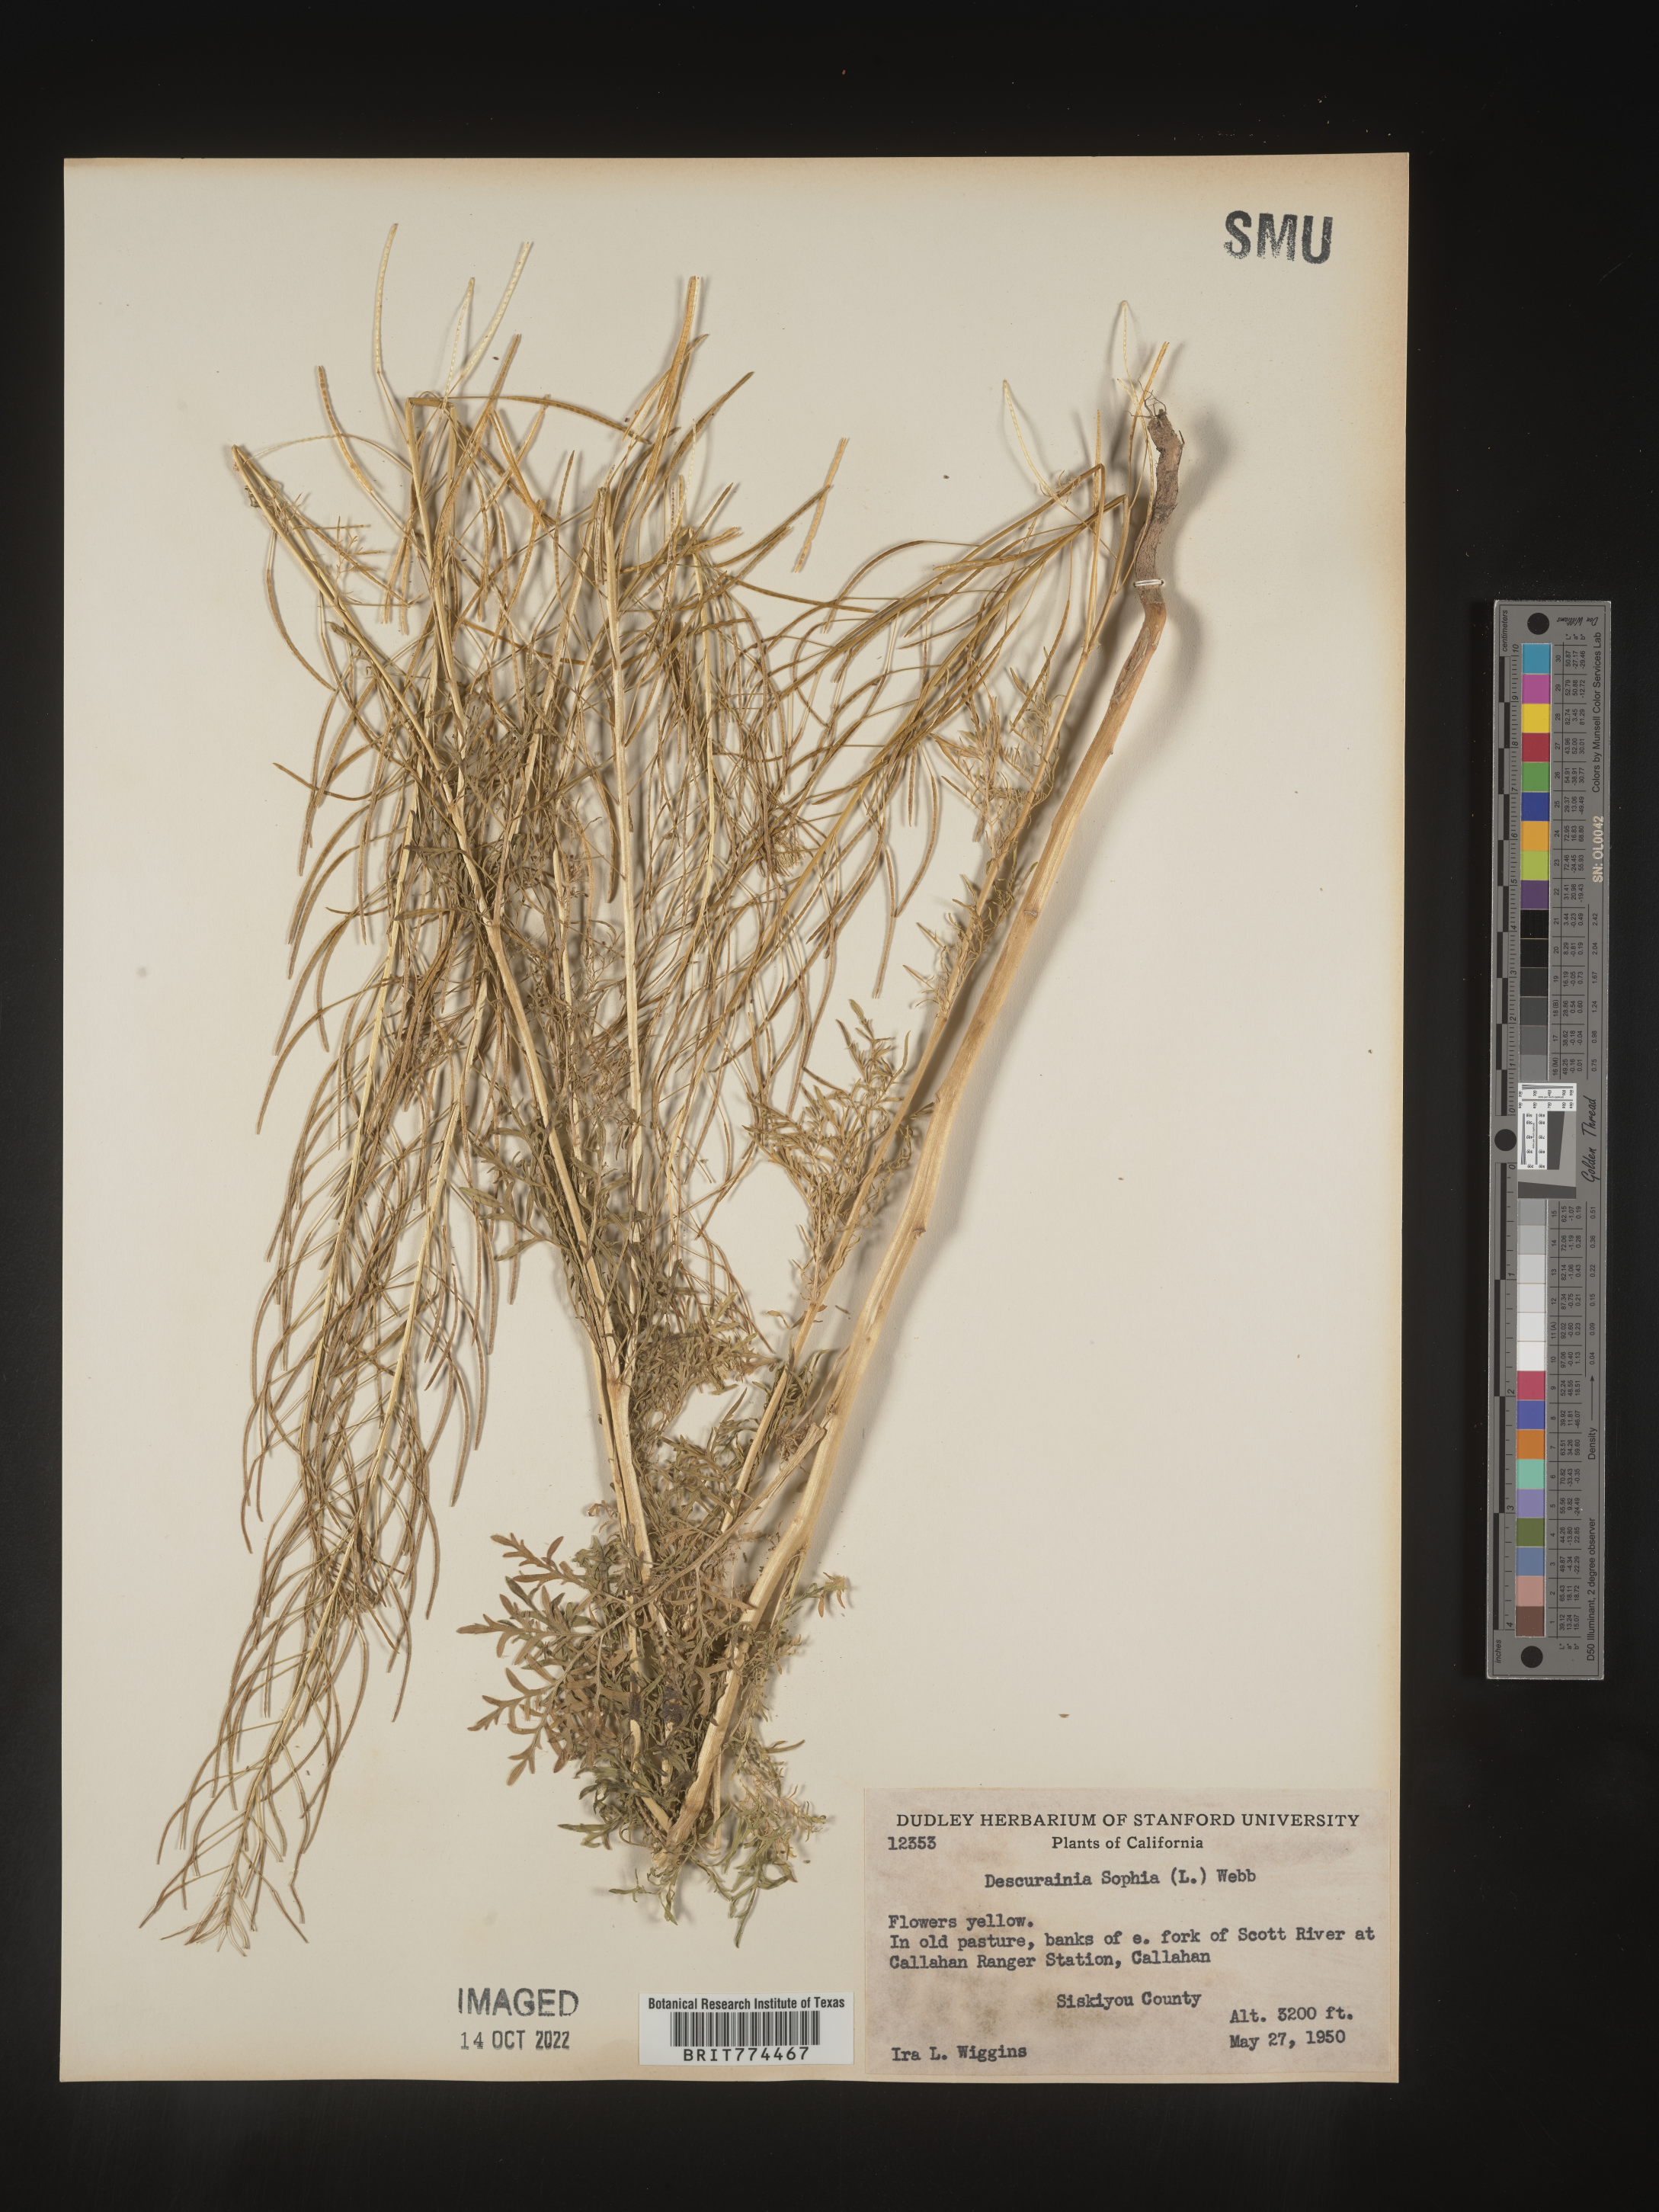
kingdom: Plantae
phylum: Tracheophyta
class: Magnoliopsida
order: Brassicales
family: Brassicaceae
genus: Descurainia
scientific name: Descurainia sophia
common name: Flixweed
